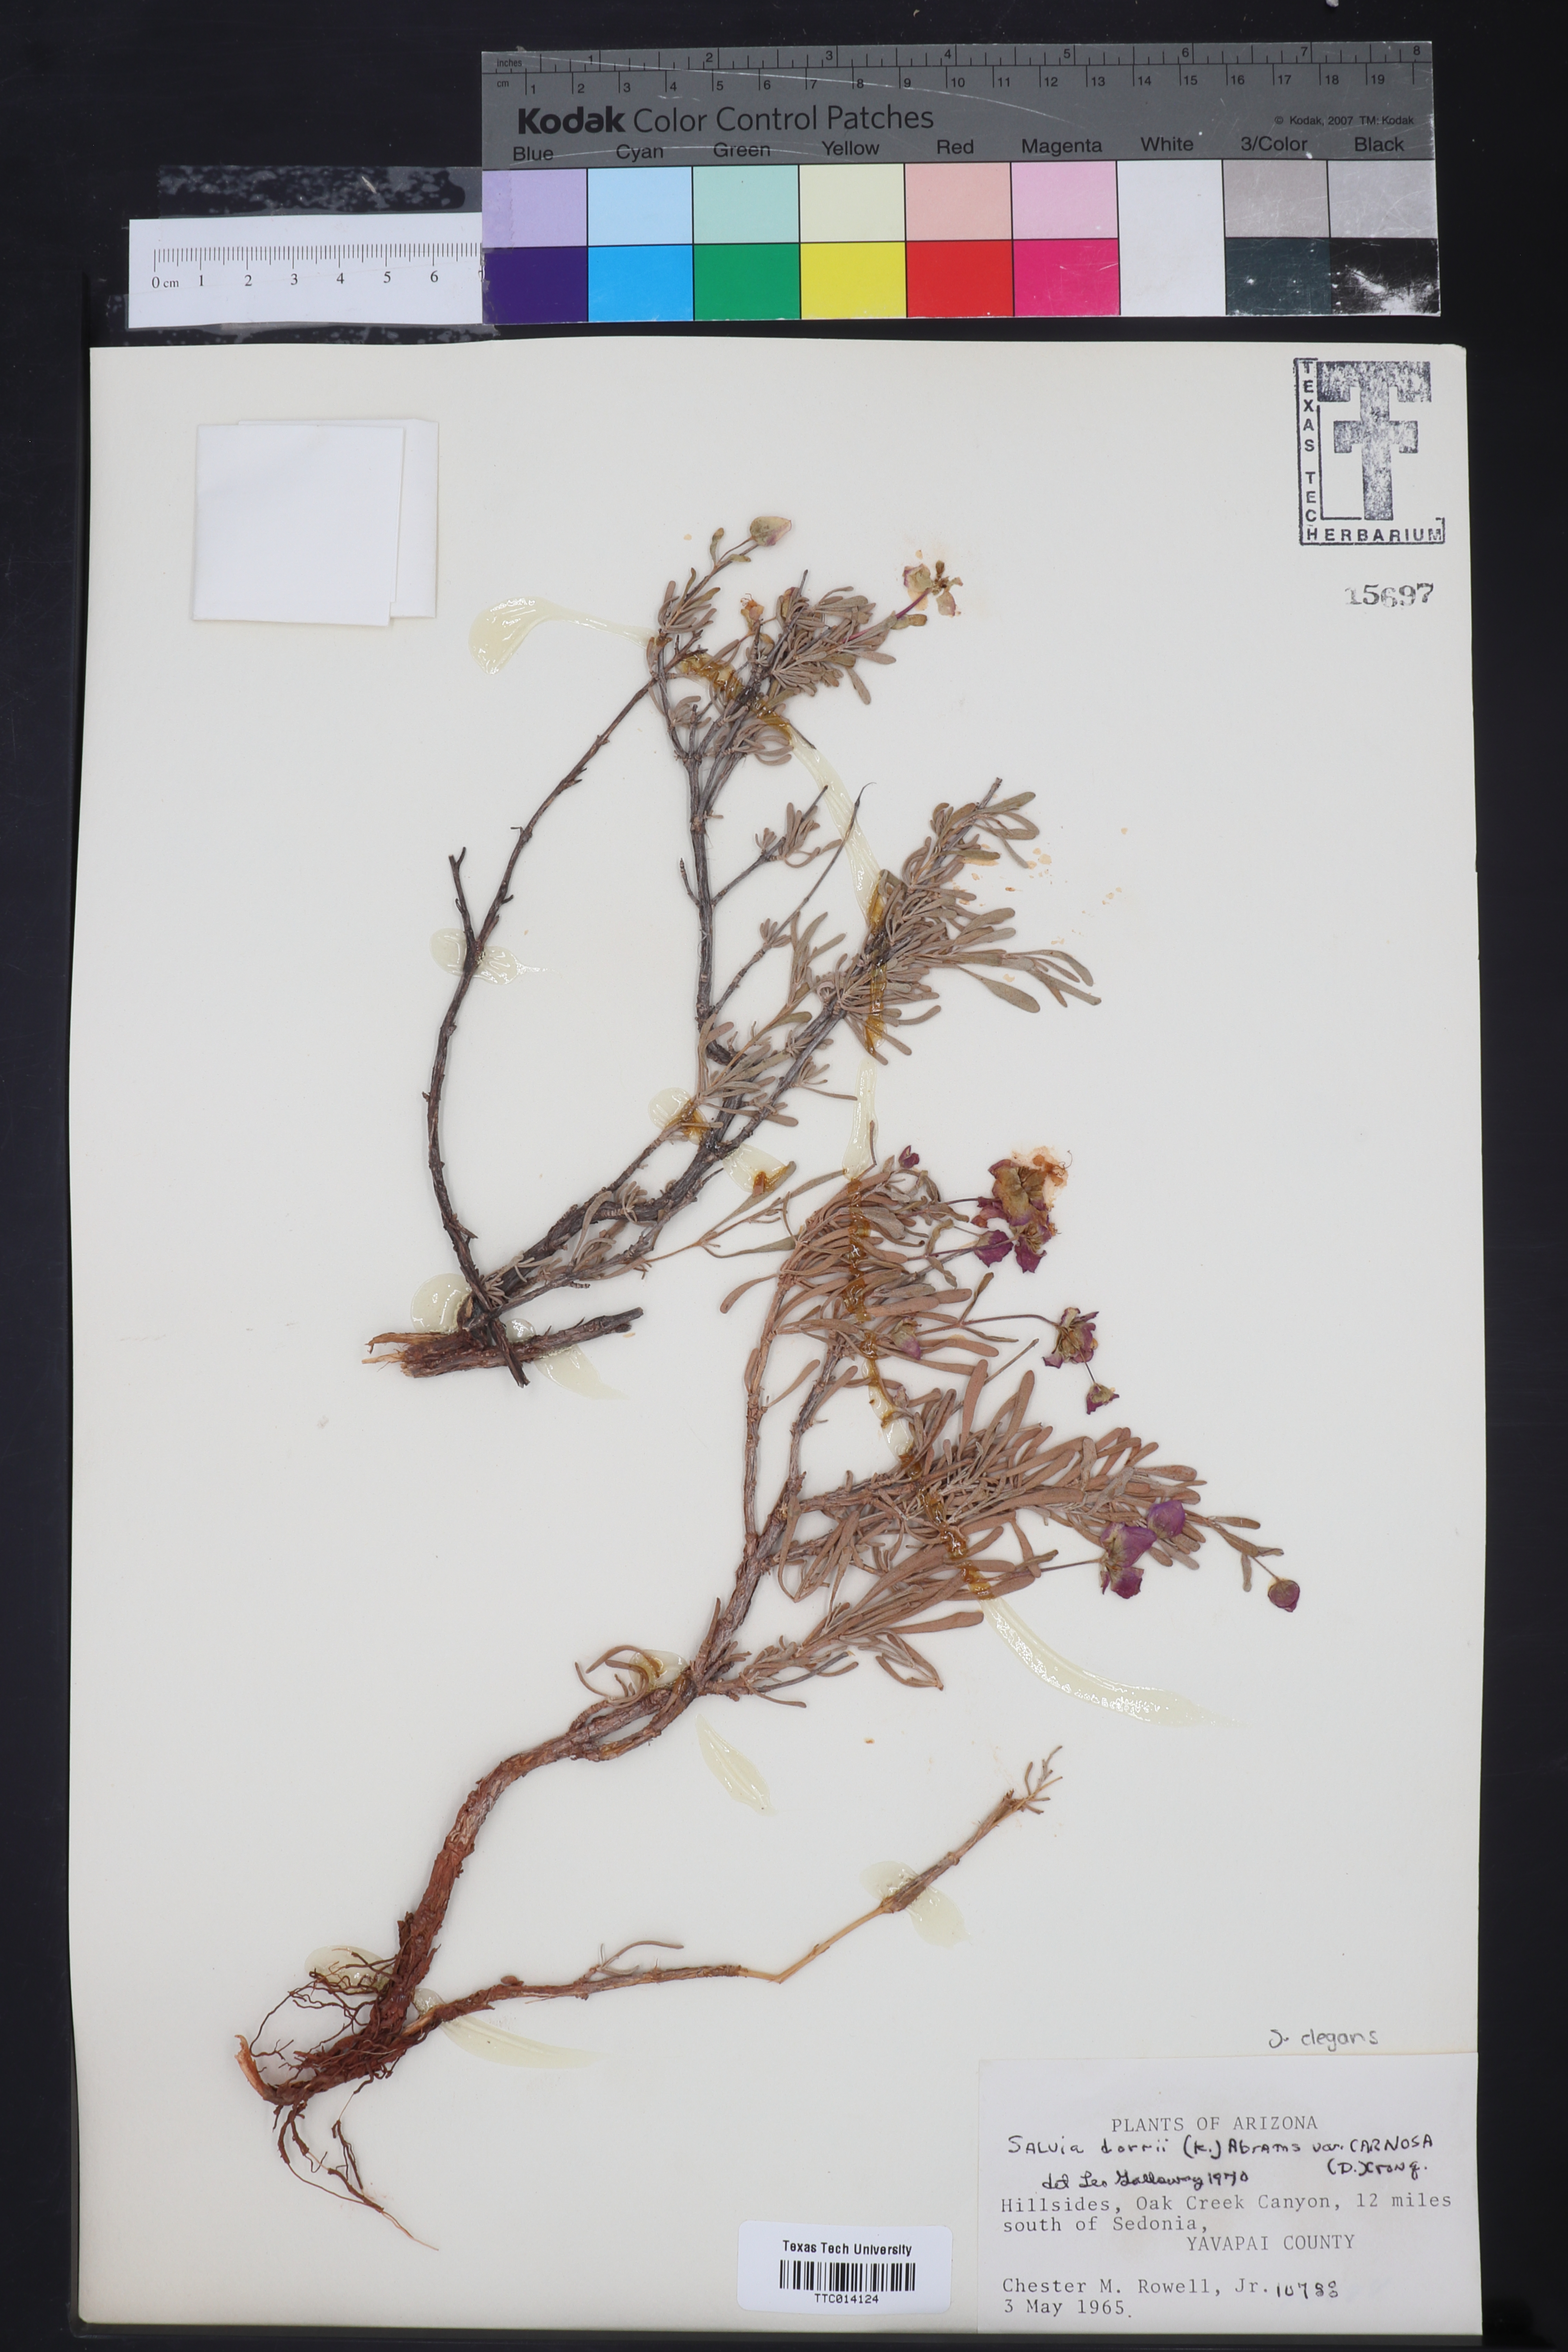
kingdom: Plantae
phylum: Tracheophyta
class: Magnoliopsida
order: Lamiales
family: Lamiaceae
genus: Salvia
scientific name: Salvia dorrii
